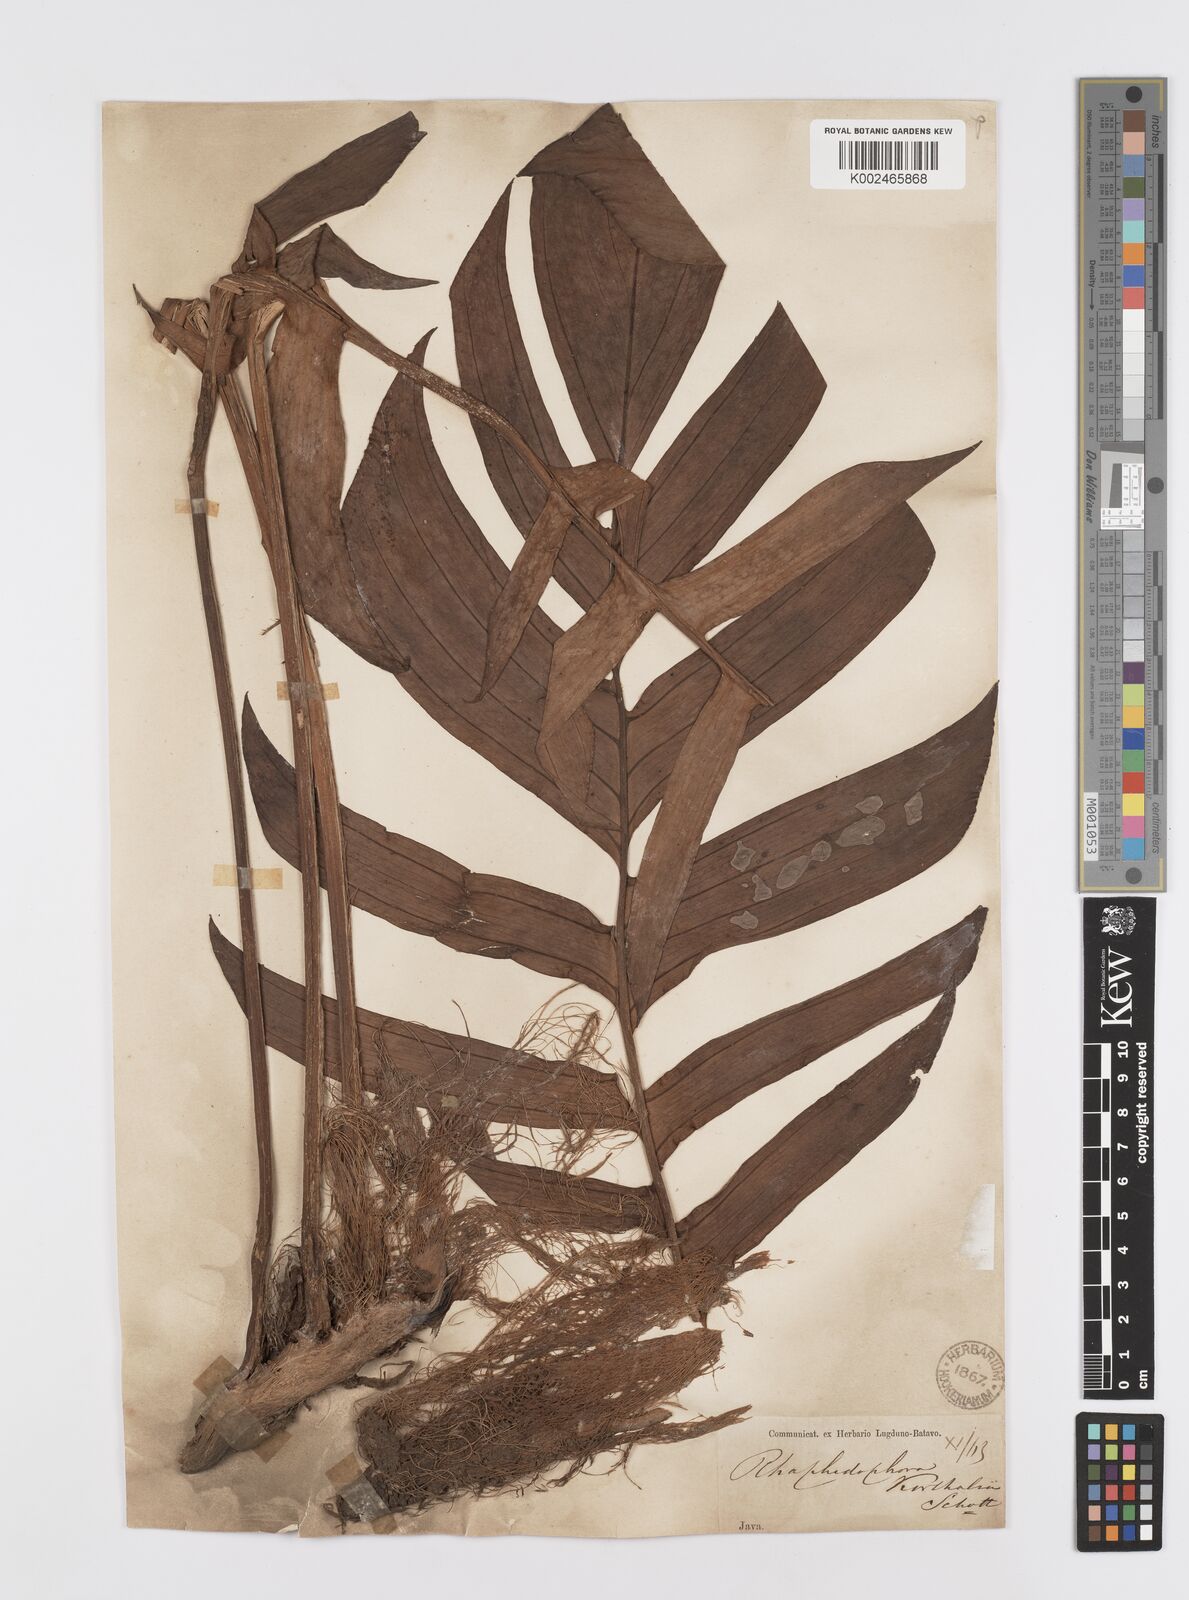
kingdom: Plantae
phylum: Tracheophyta
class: Liliopsida
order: Alismatales
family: Araceae
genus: Rhaphidophora
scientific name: Rhaphidophora korthalsii
